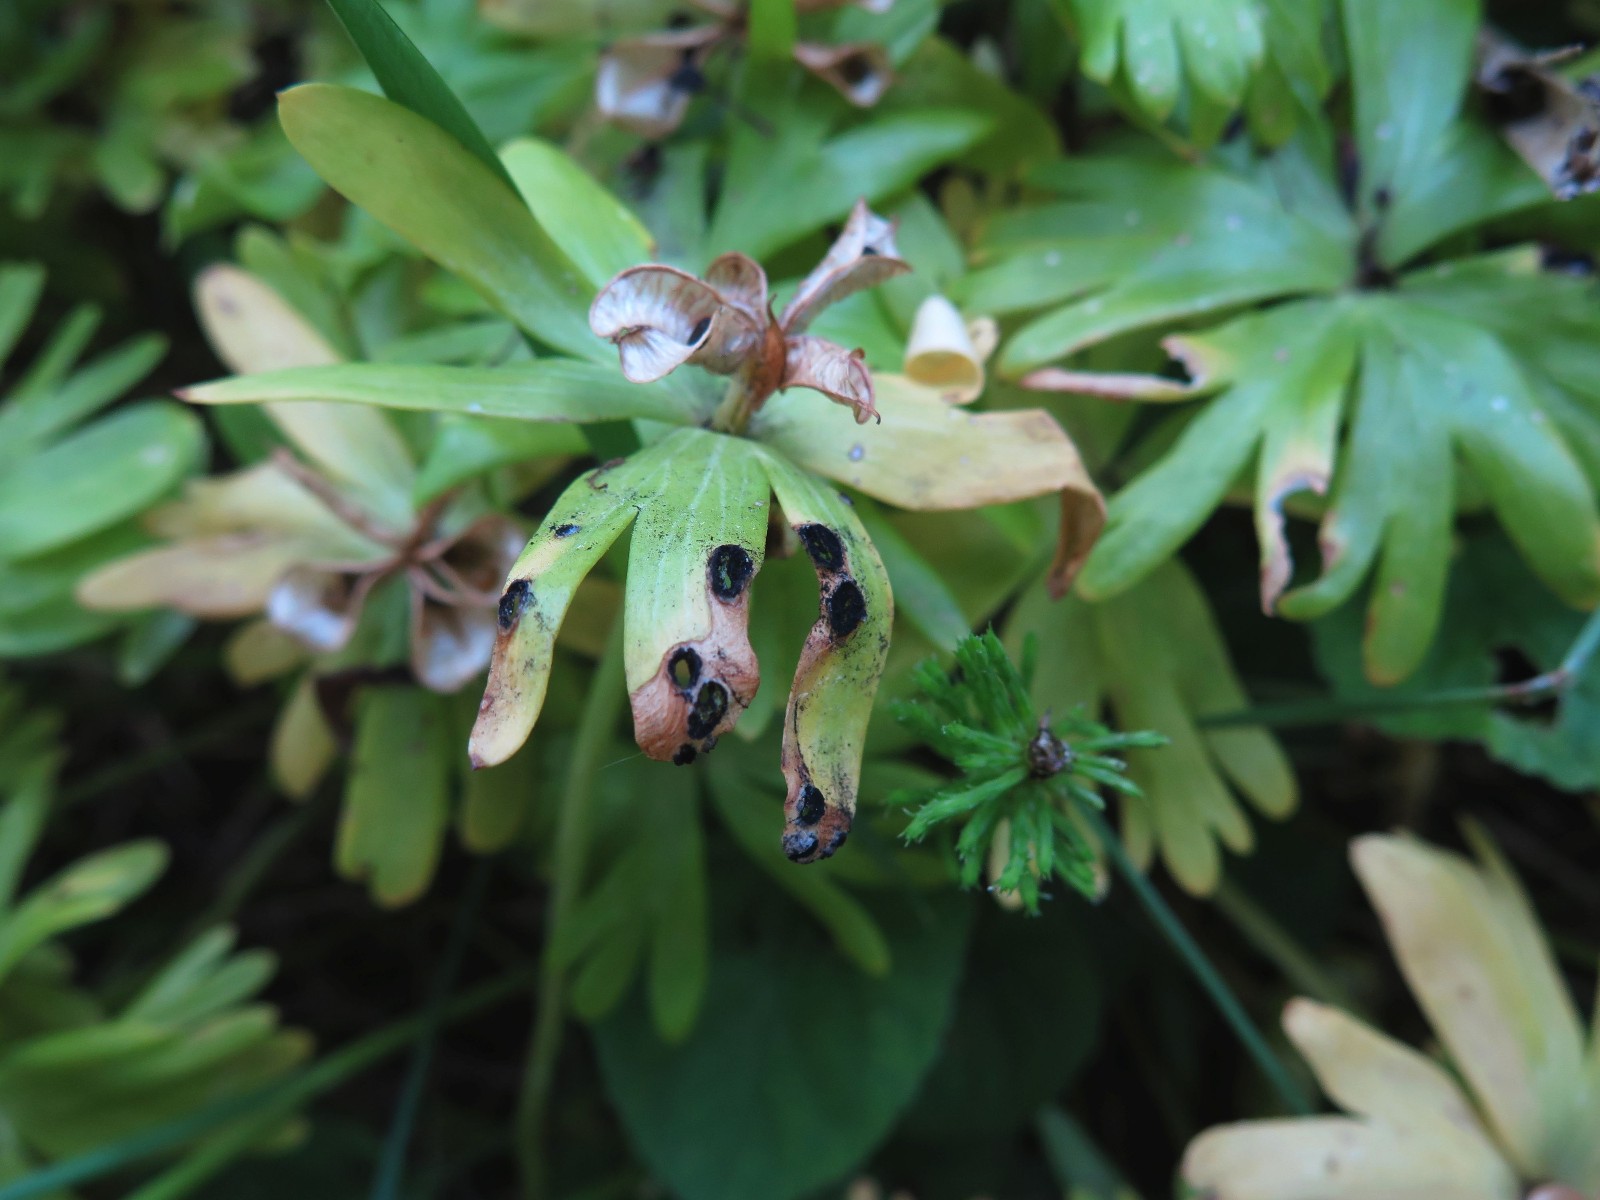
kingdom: Fungi
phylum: Basidiomycota
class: Ustilaginomycetes
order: Urocystidales
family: Urocystidaceae
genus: Urocystis
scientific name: Urocystis eranthidis
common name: erantis-brand
